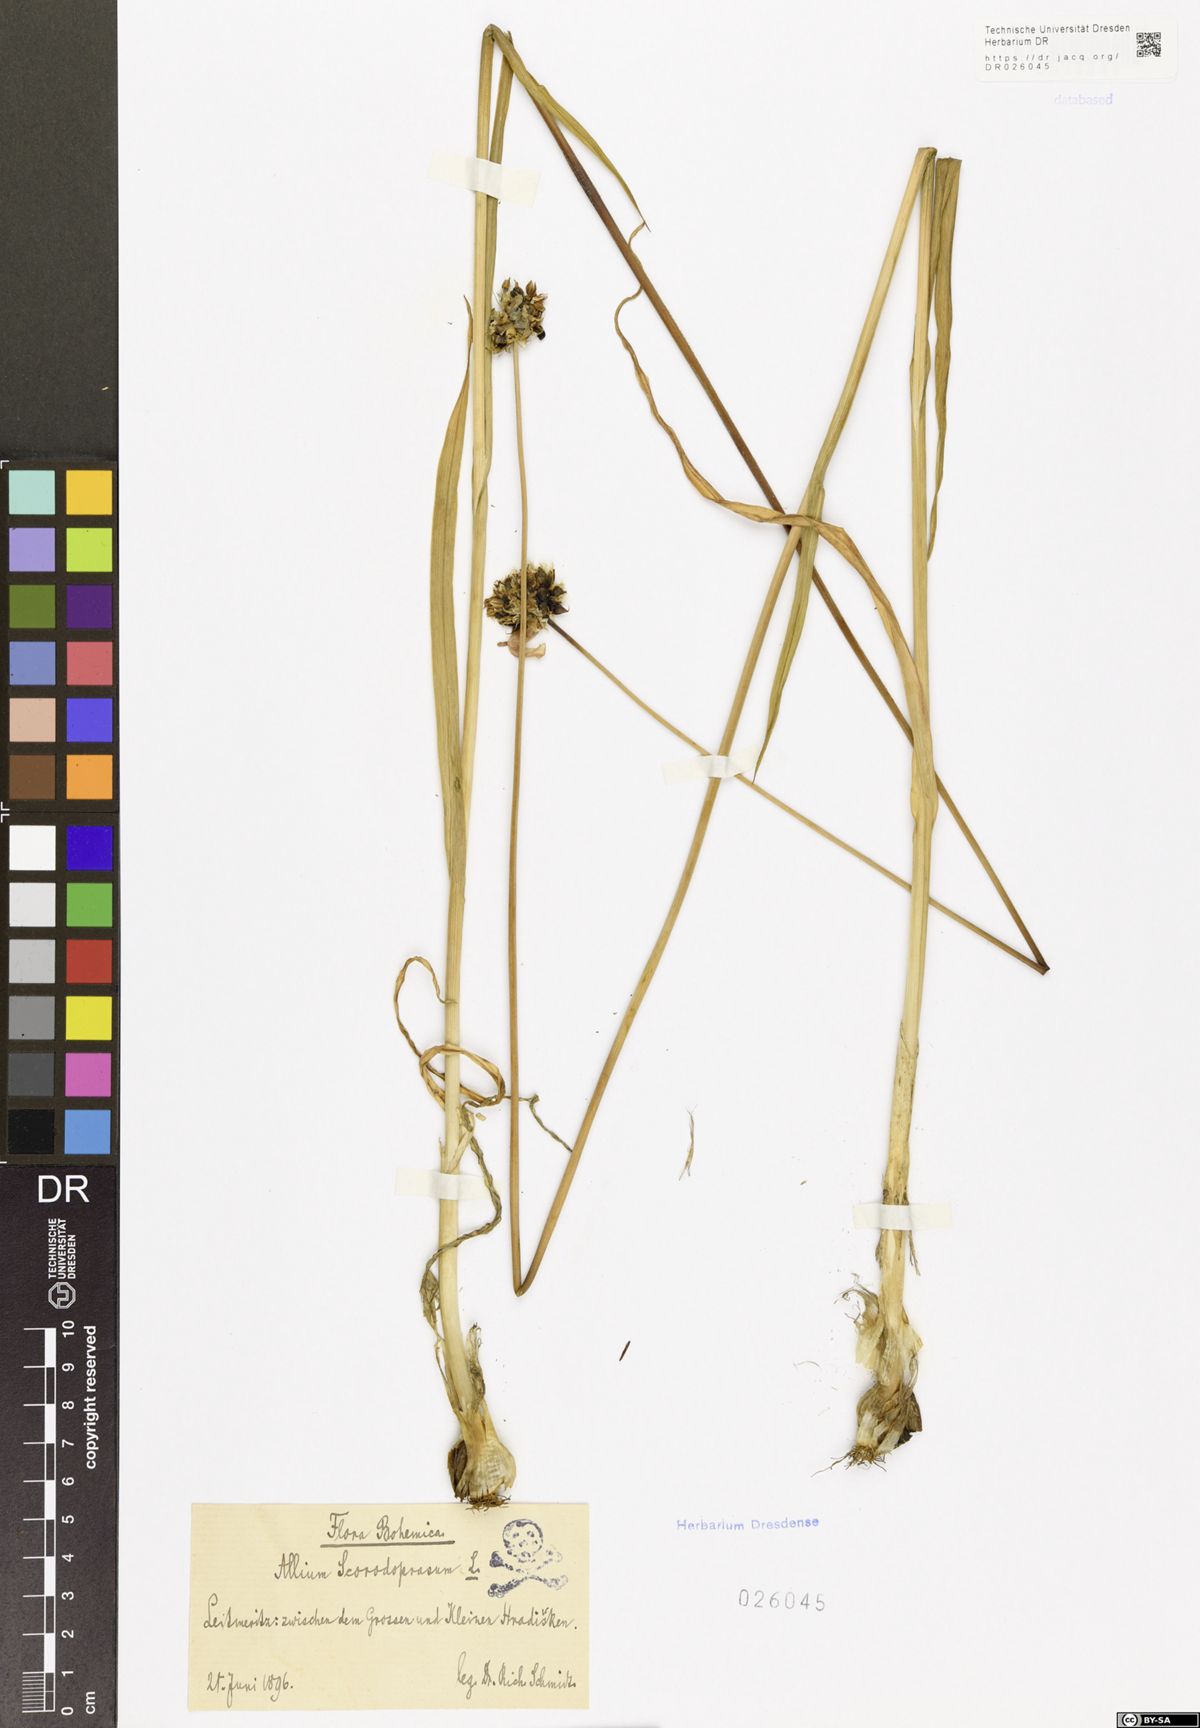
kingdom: Plantae
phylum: Tracheophyta
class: Liliopsida
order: Asparagales
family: Amaryllidaceae
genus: Allium
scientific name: Allium scorodoprasum
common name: Sand leek
